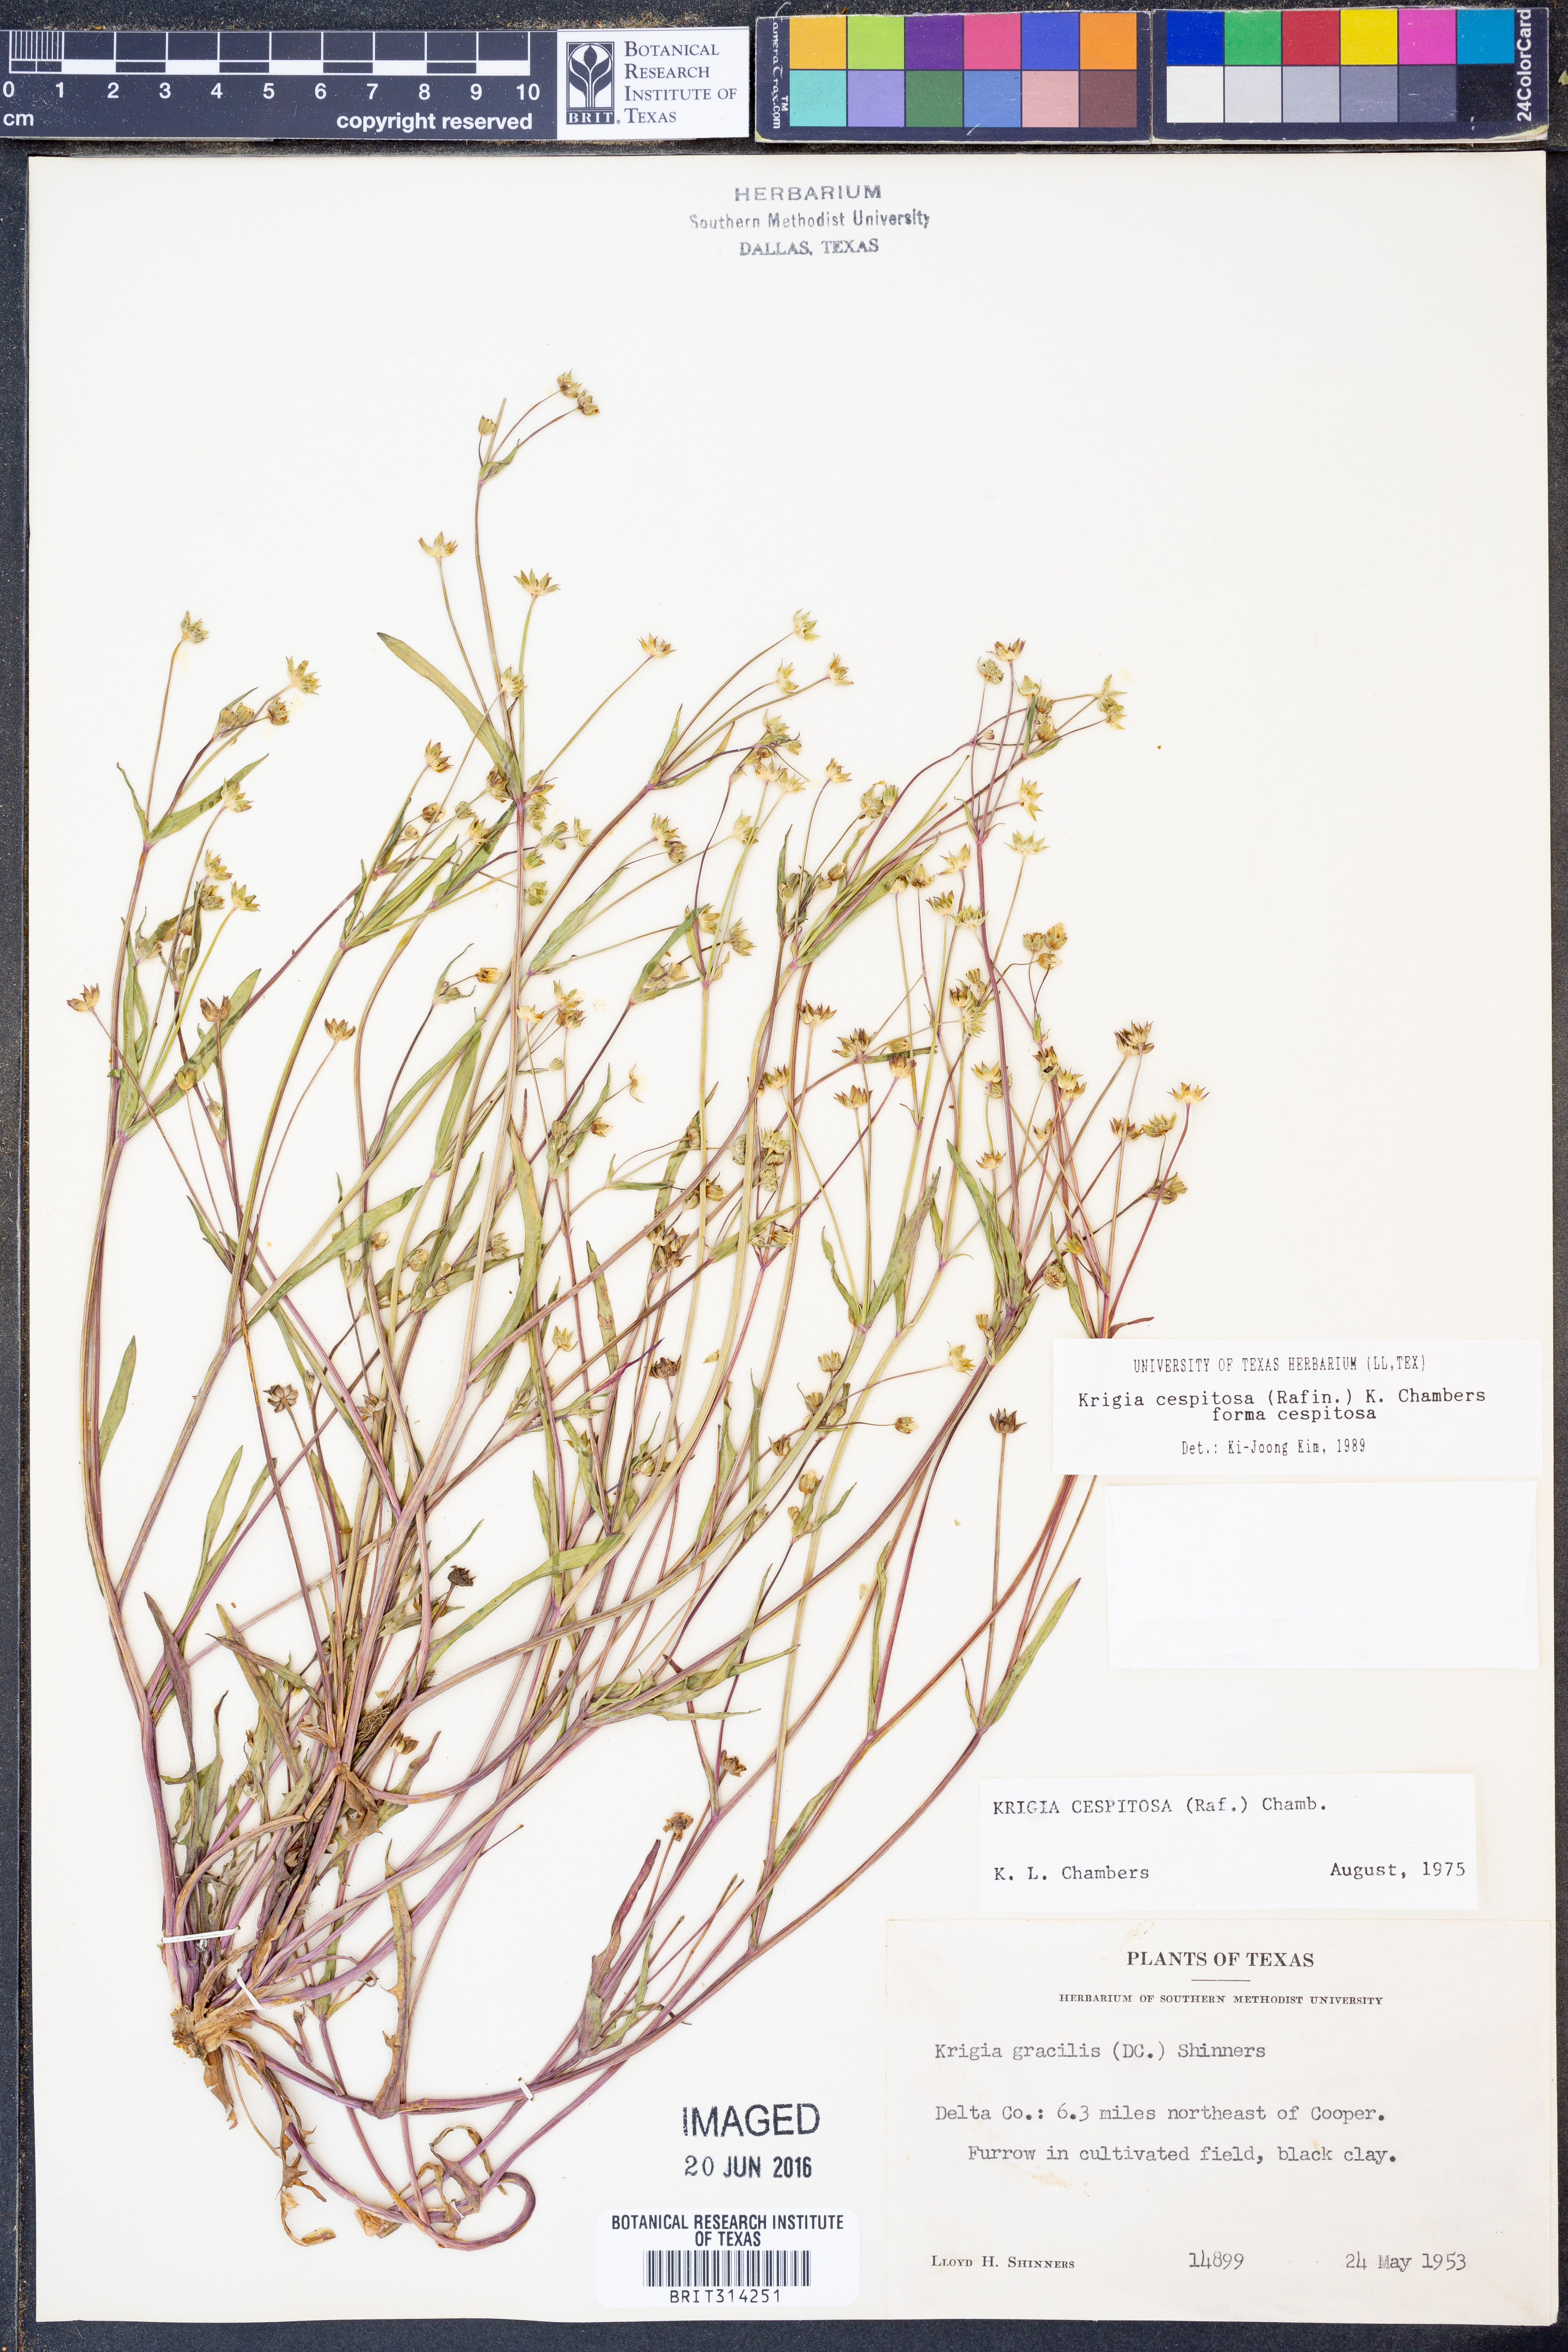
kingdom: Plantae
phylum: Tracheophyta
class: Magnoliopsida
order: Asterales
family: Asteraceae
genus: Krigia
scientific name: Krigia cespitosa
